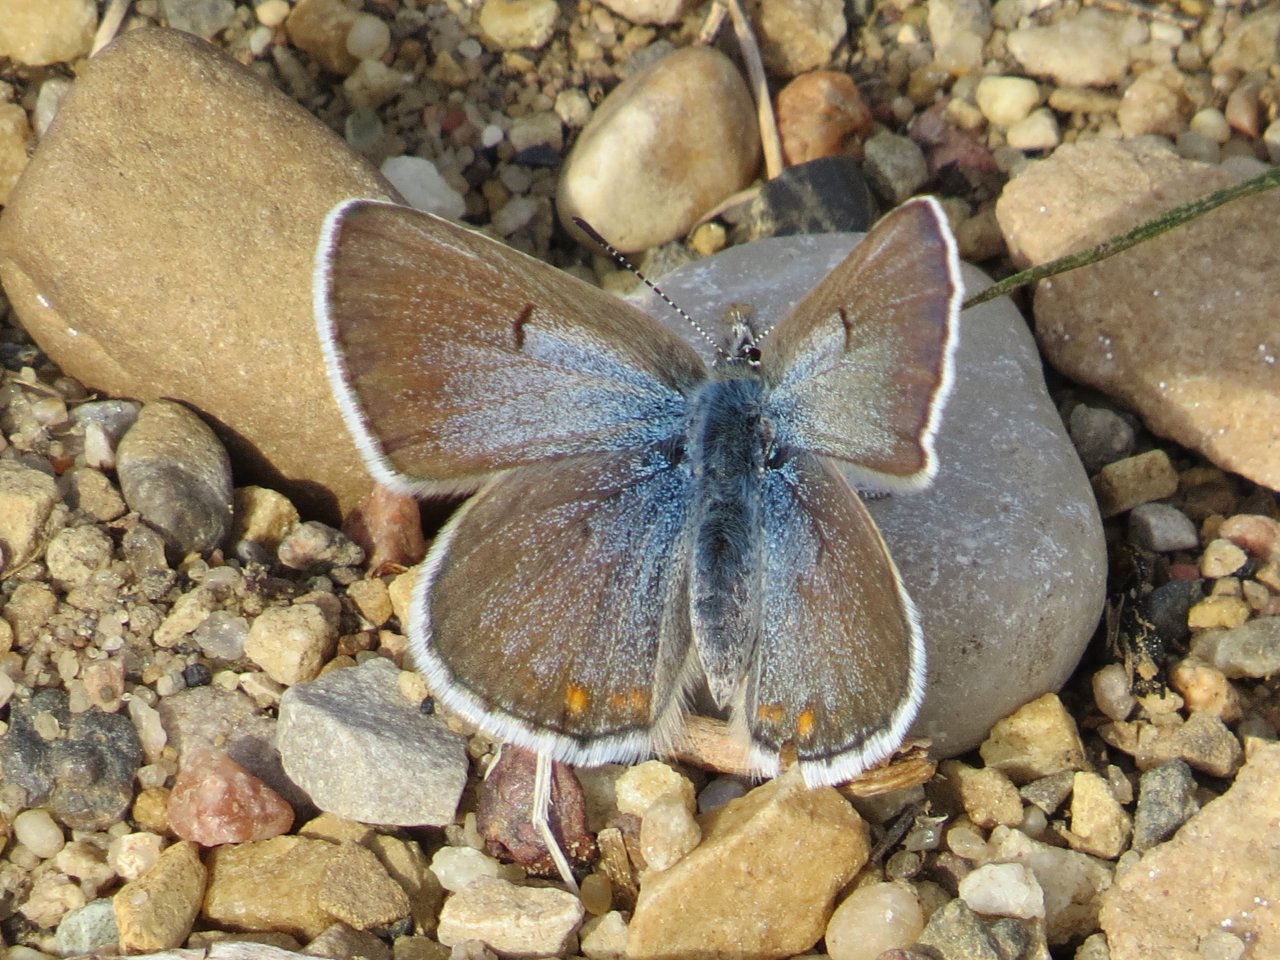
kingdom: Animalia
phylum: Arthropoda
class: Insecta
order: Lepidoptera
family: Lycaenidae
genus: Plebejus
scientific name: Plebejus saepiolus
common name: Greenish Blue
